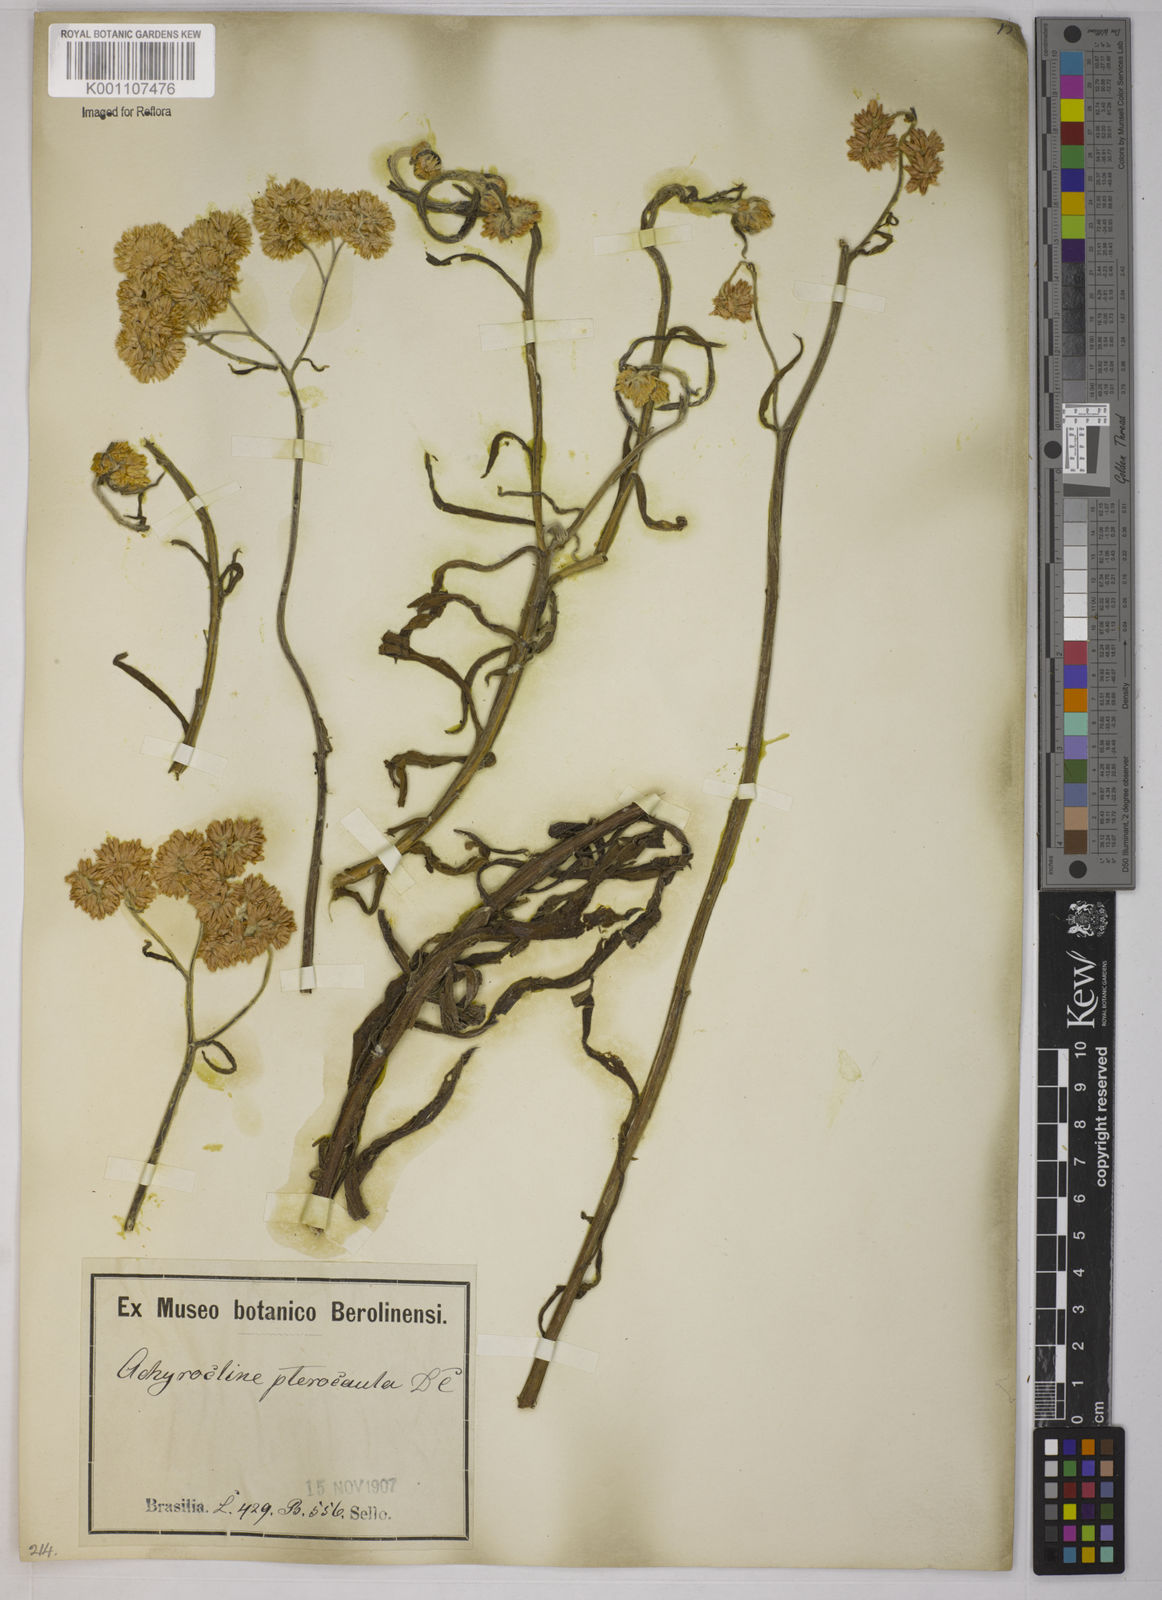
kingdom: Plantae
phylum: Tracheophyta
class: Magnoliopsida
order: Asterales
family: Asteraceae
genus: Achyrocline
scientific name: Achyrocline alata
